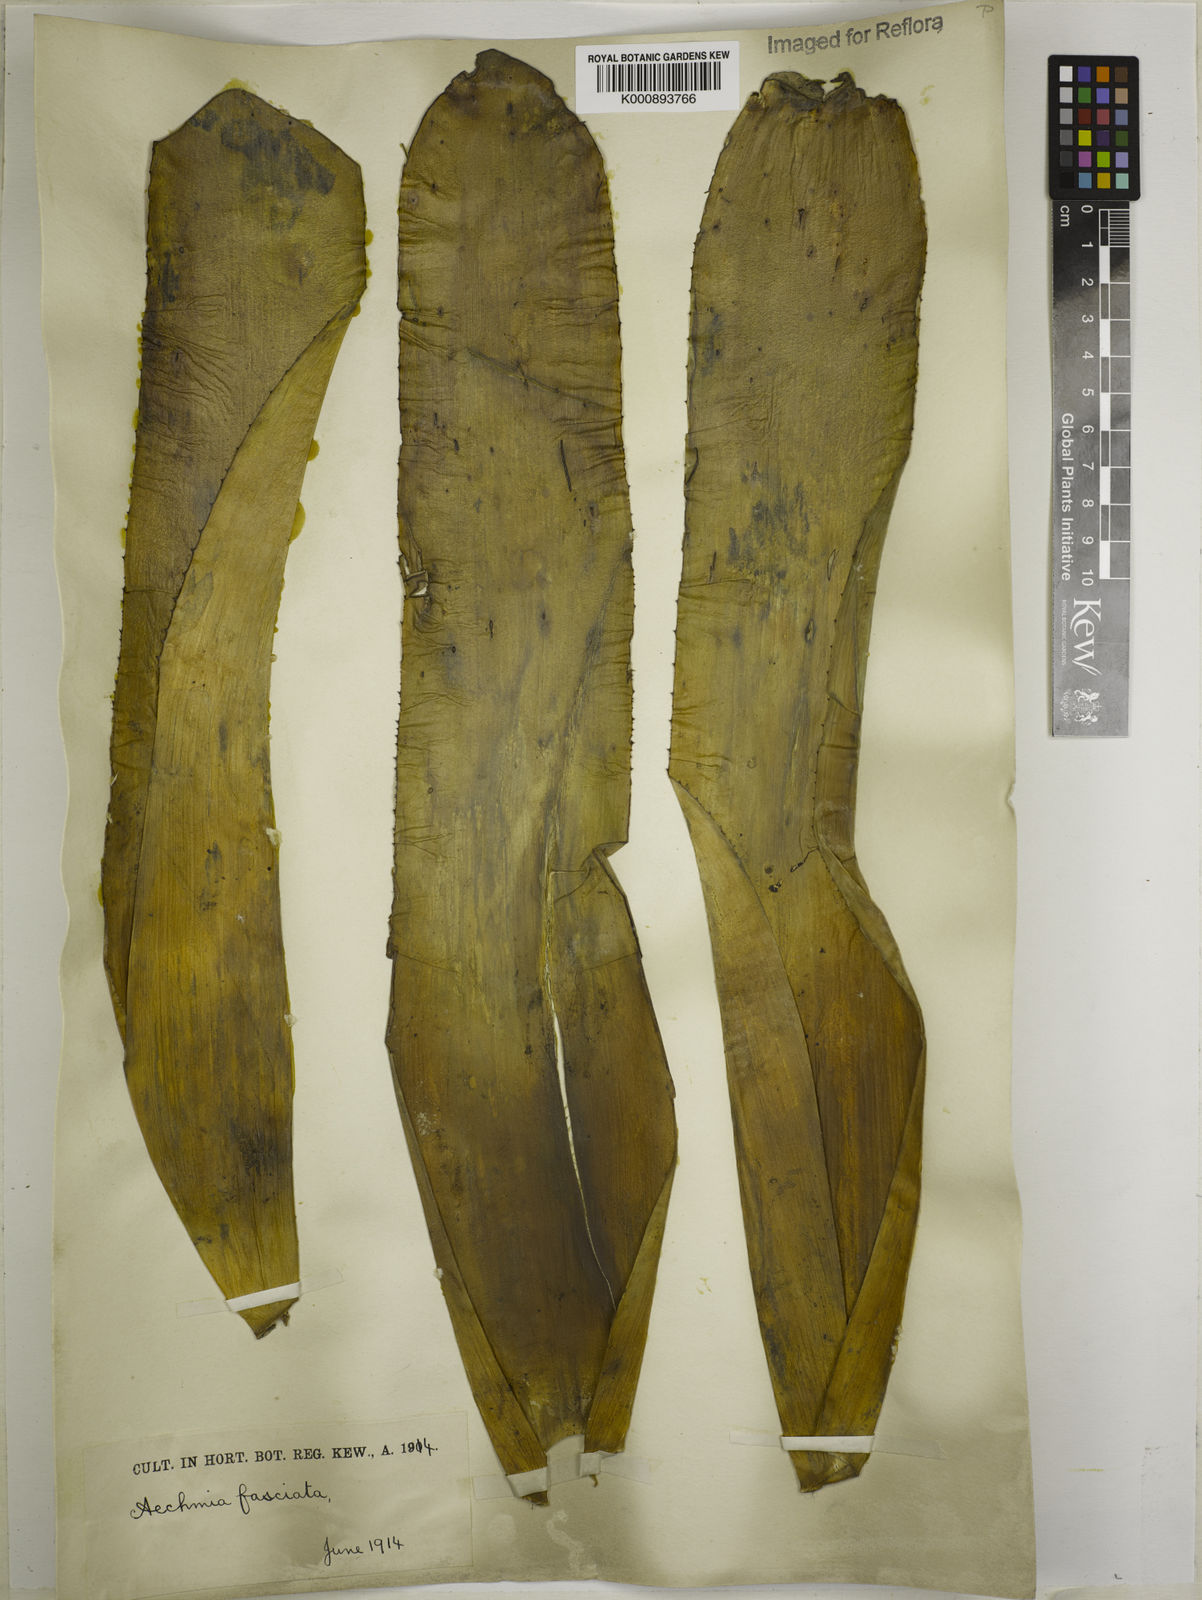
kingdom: Plantae
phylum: Tracheophyta
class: Liliopsida
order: Poales
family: Bromeliaceae
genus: Aechmea
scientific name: Aechmea fasciata
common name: Urnplant
